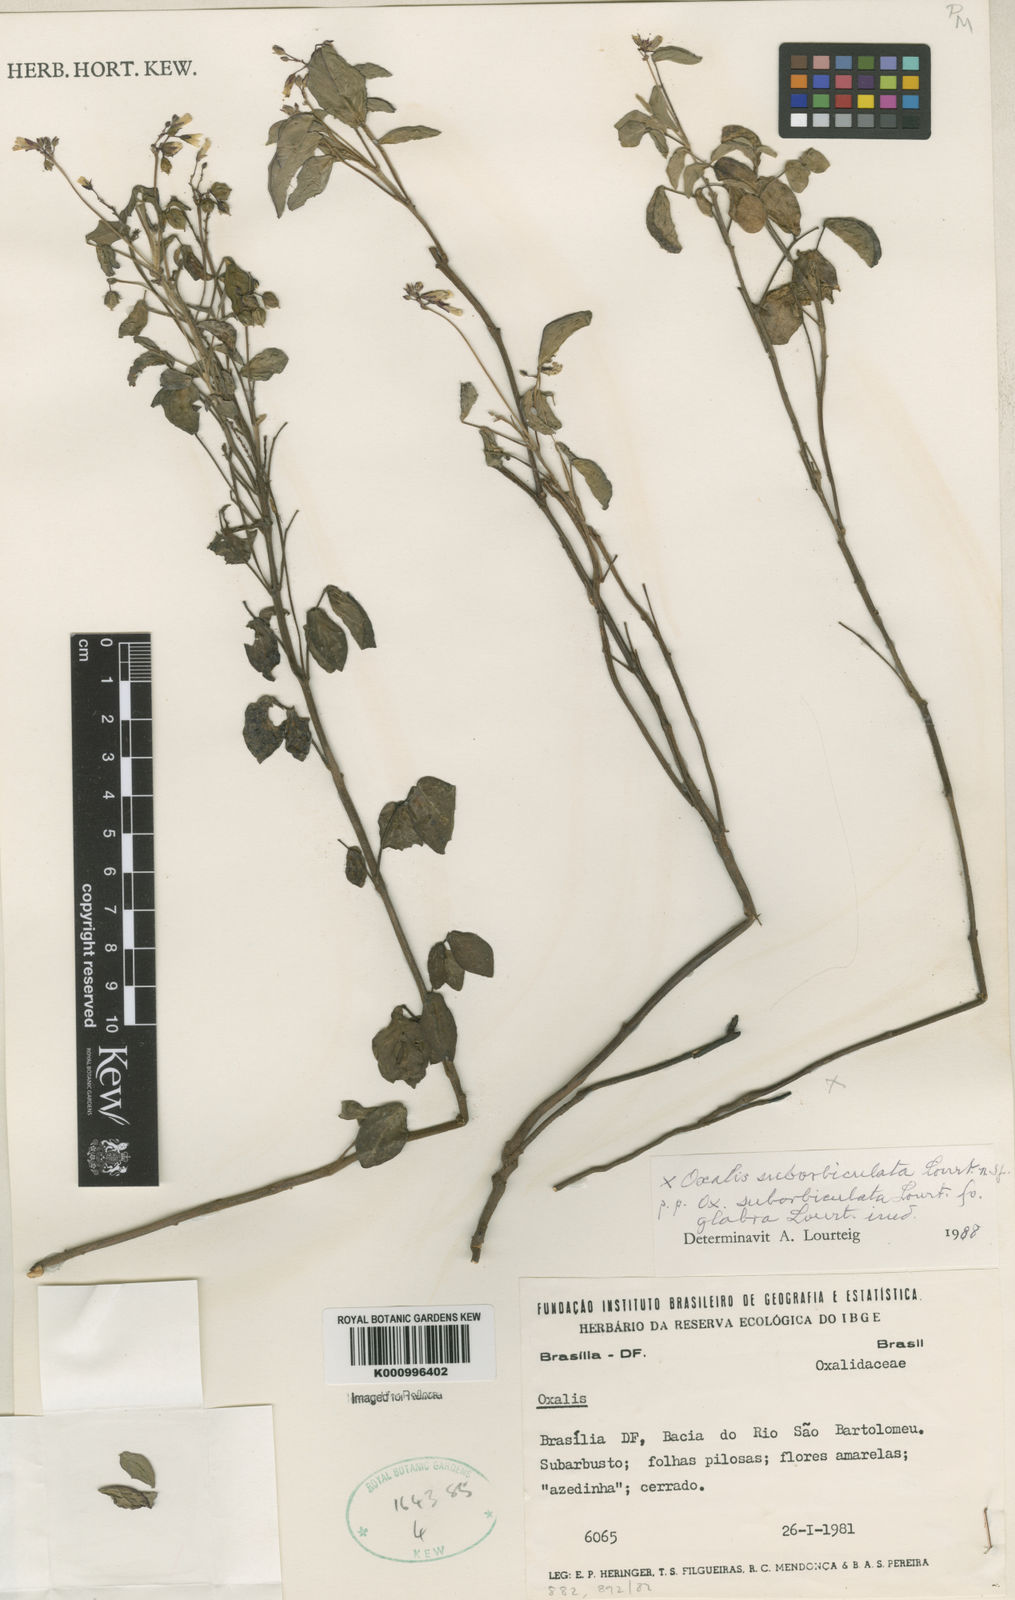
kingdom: Plantae
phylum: Tracheophyta
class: Magnoliopsida
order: Oxalidales
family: Oxalidaceae
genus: Oxalis
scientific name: Oxalis suborbiculata
